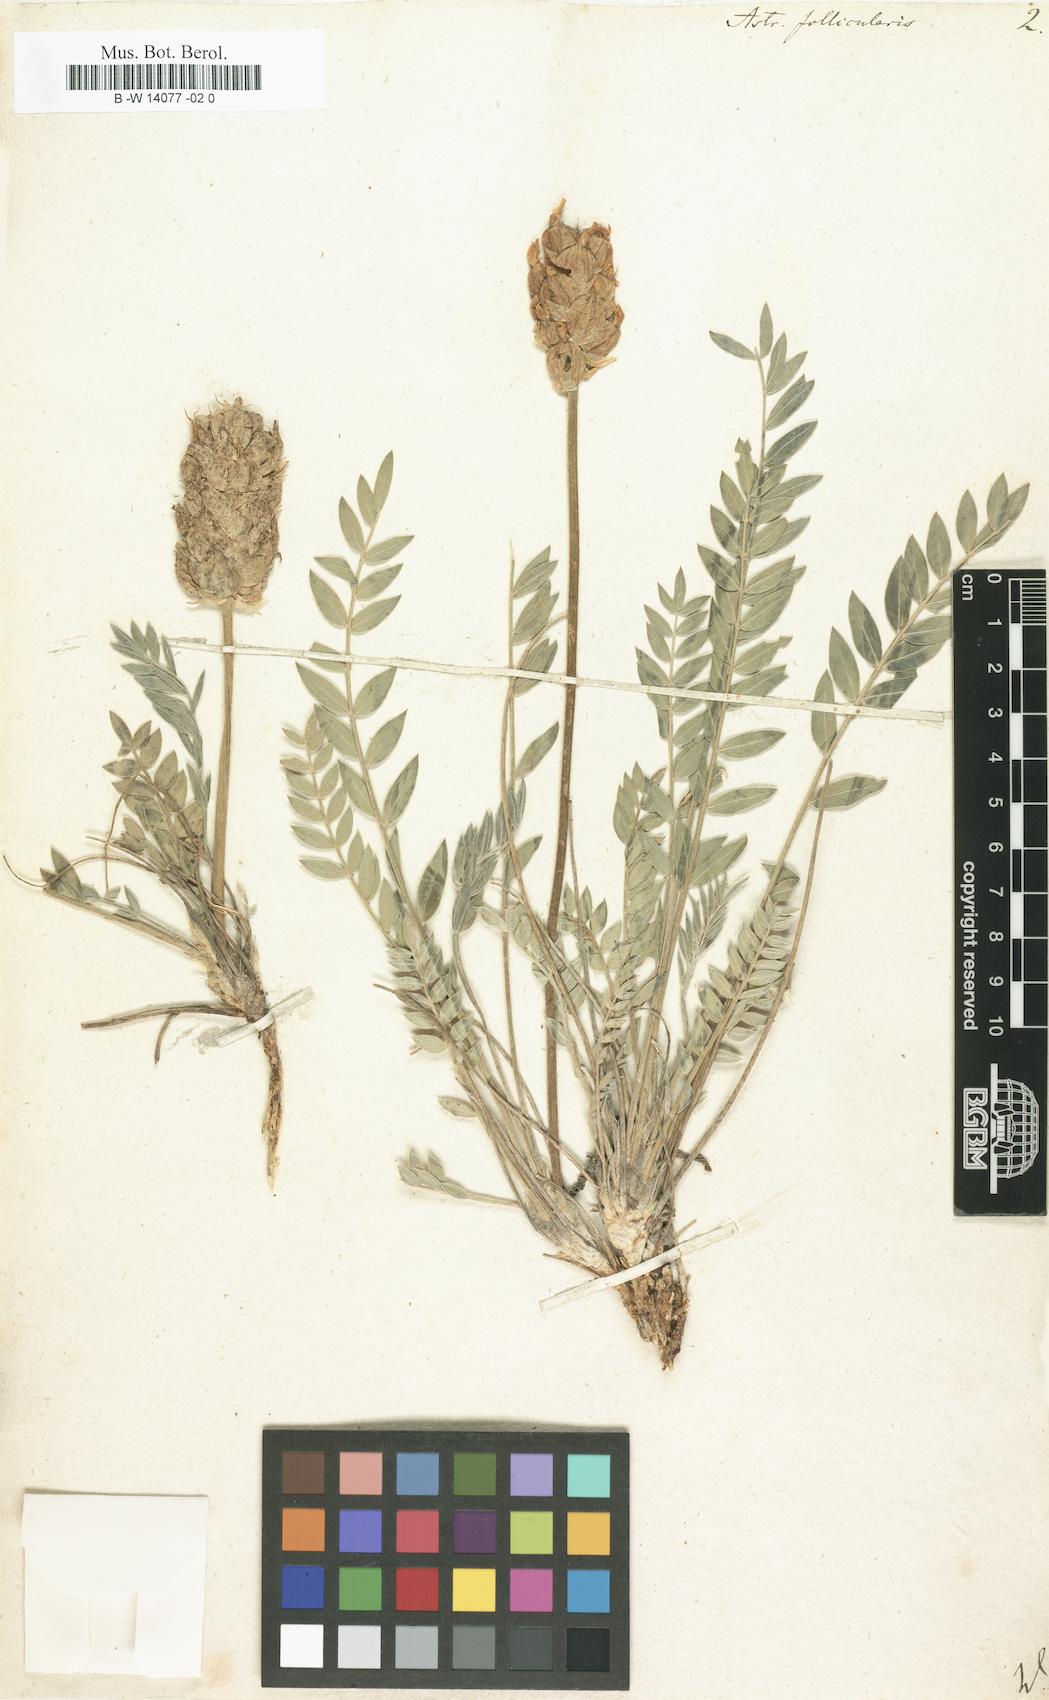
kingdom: Plantae
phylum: Tracheophyta
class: Magnoliopsida
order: Fabales
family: Fabaceae
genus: Astragalus
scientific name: Astragalus follicularis
